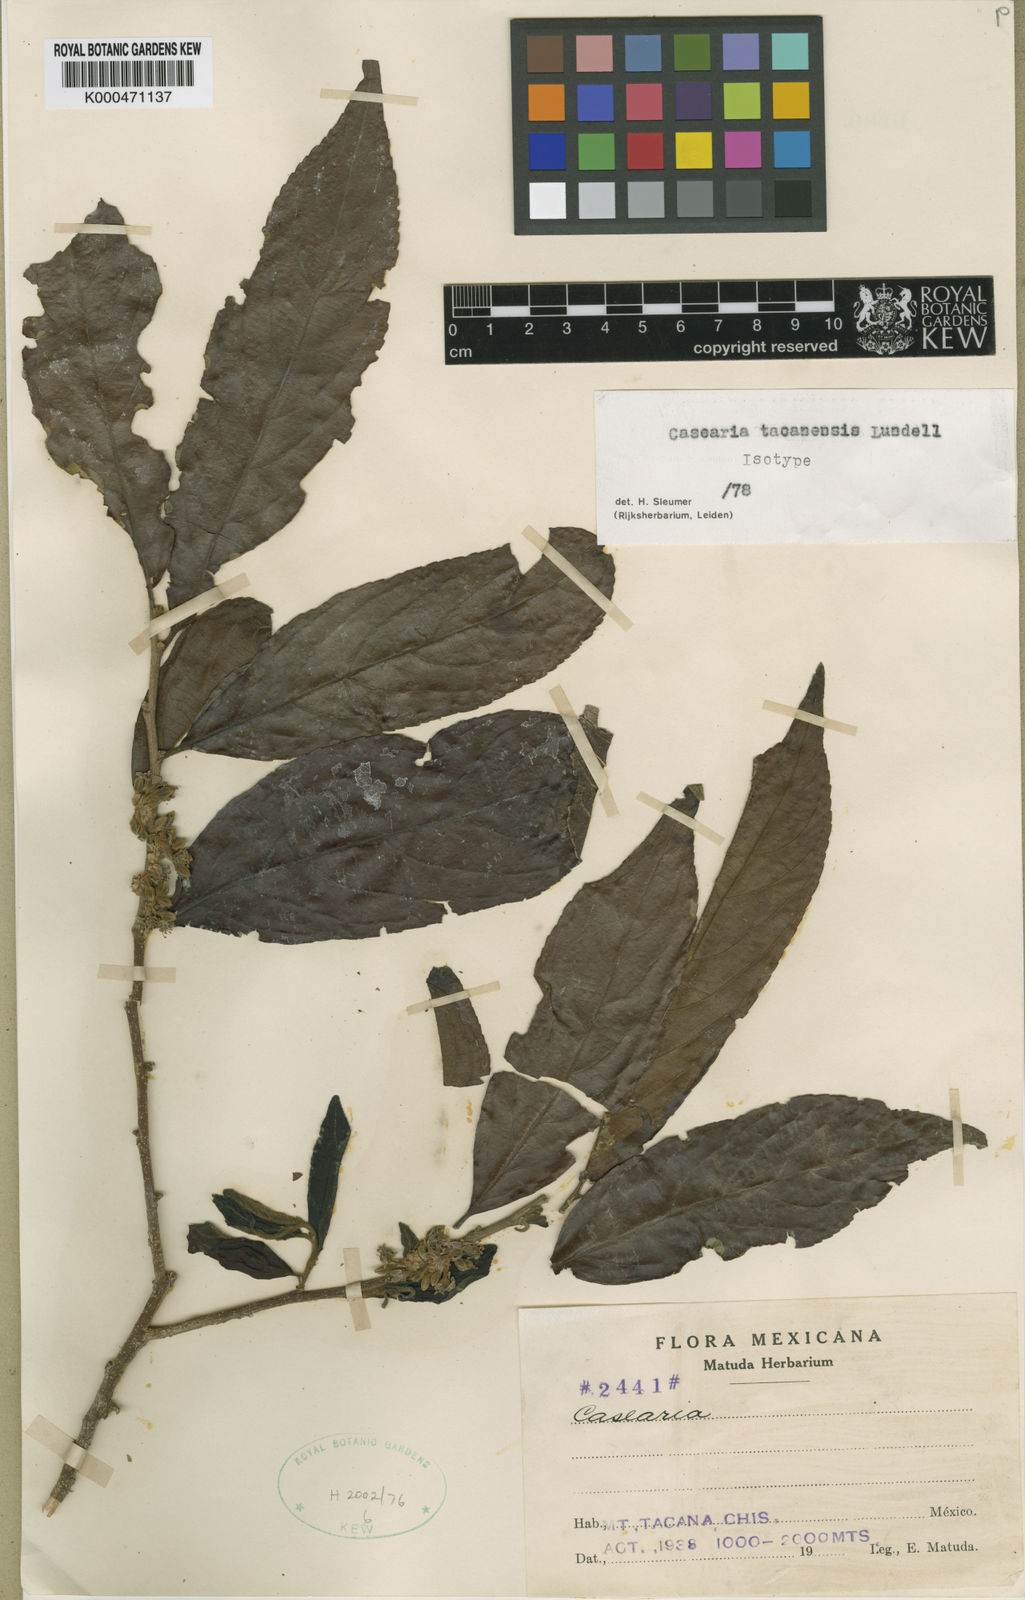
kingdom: Plantae
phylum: Tracheophyta
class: Magnoliopsida
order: Malpighiales
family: Salicaceae
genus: Casearia
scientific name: Casearia tacanensis
